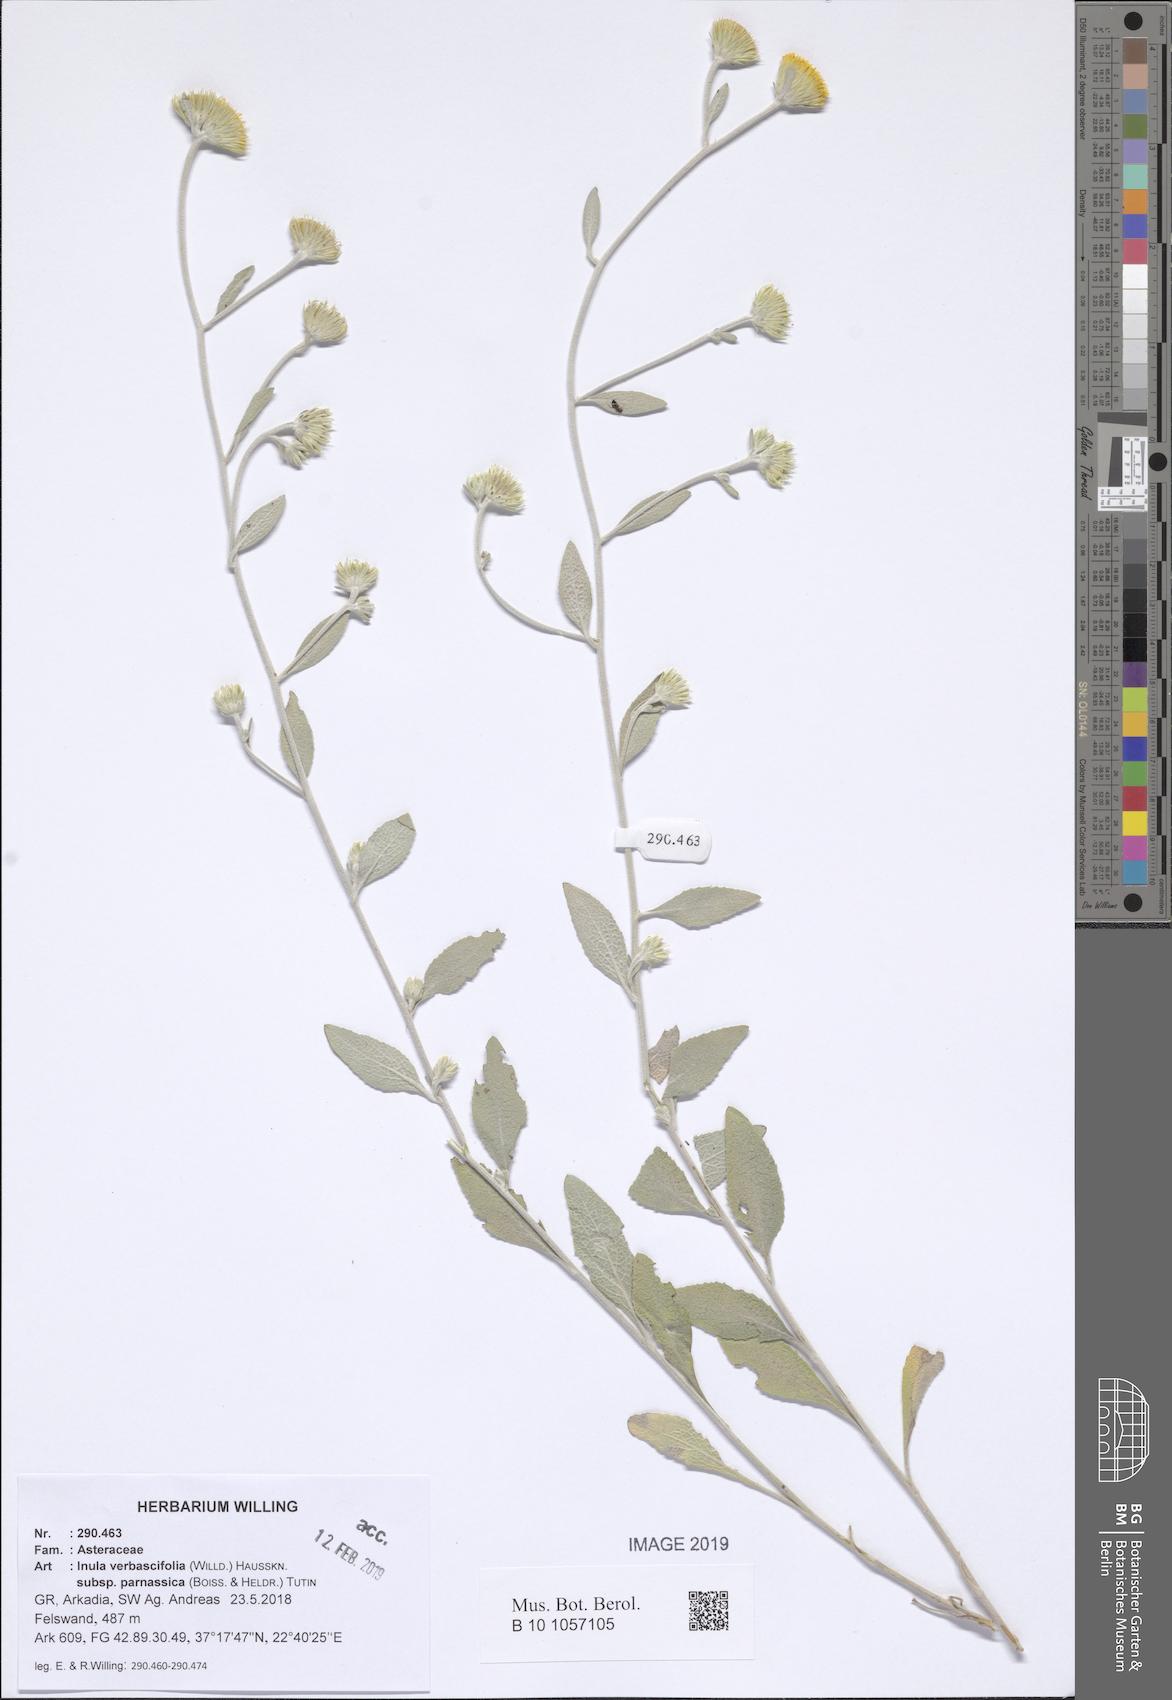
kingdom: Plantae
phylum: Tracheophyta
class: Magnoliopsida
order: Asterales
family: Asteraceae
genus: Pentanema
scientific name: Pentanema verbascifolium
